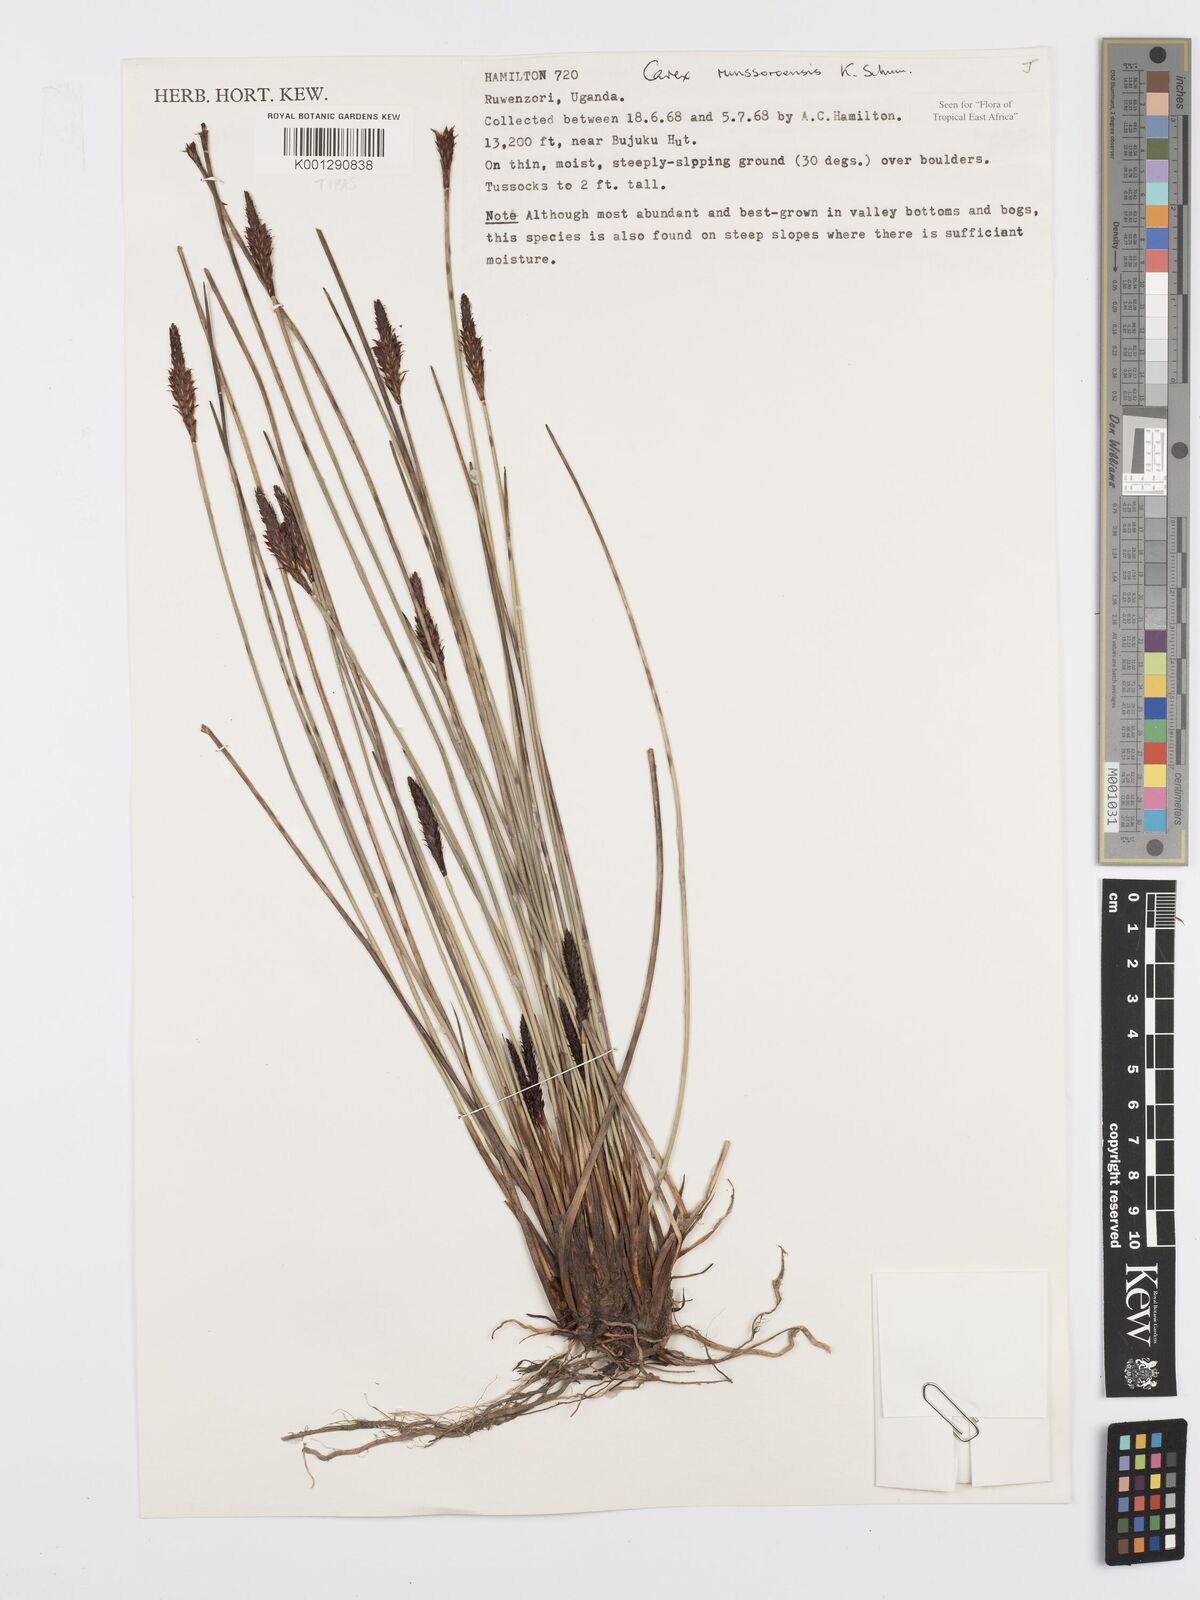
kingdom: Plantae
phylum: Tracheophyta
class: Liliopsida
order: Poales
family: Cyperaceae
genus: Carex
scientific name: Carex runssoroensis
